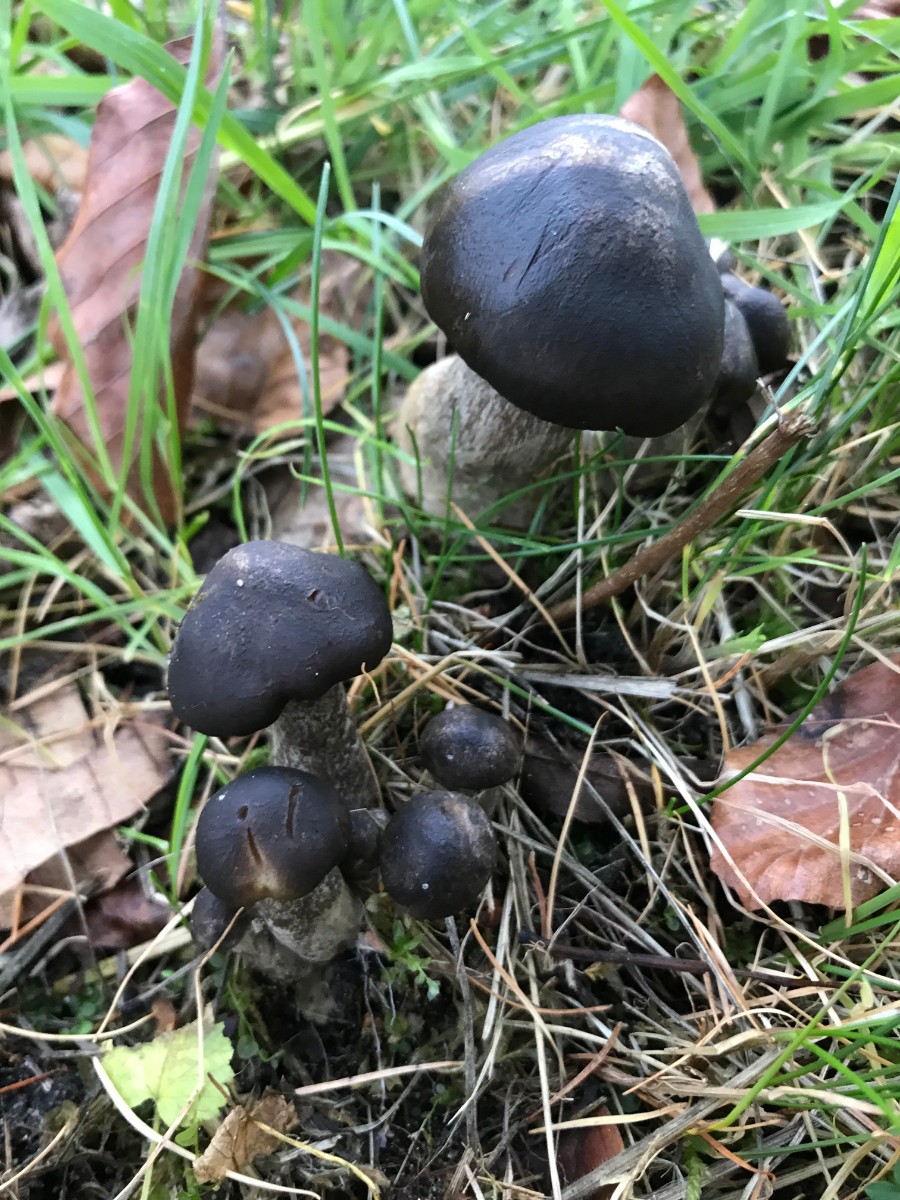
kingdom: Fungi
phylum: Basidiomycota
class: Agaricomycetes
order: Agaricales
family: Lyophyllaceae
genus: Lyophyllum
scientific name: Lyophyllum
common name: gråblad
